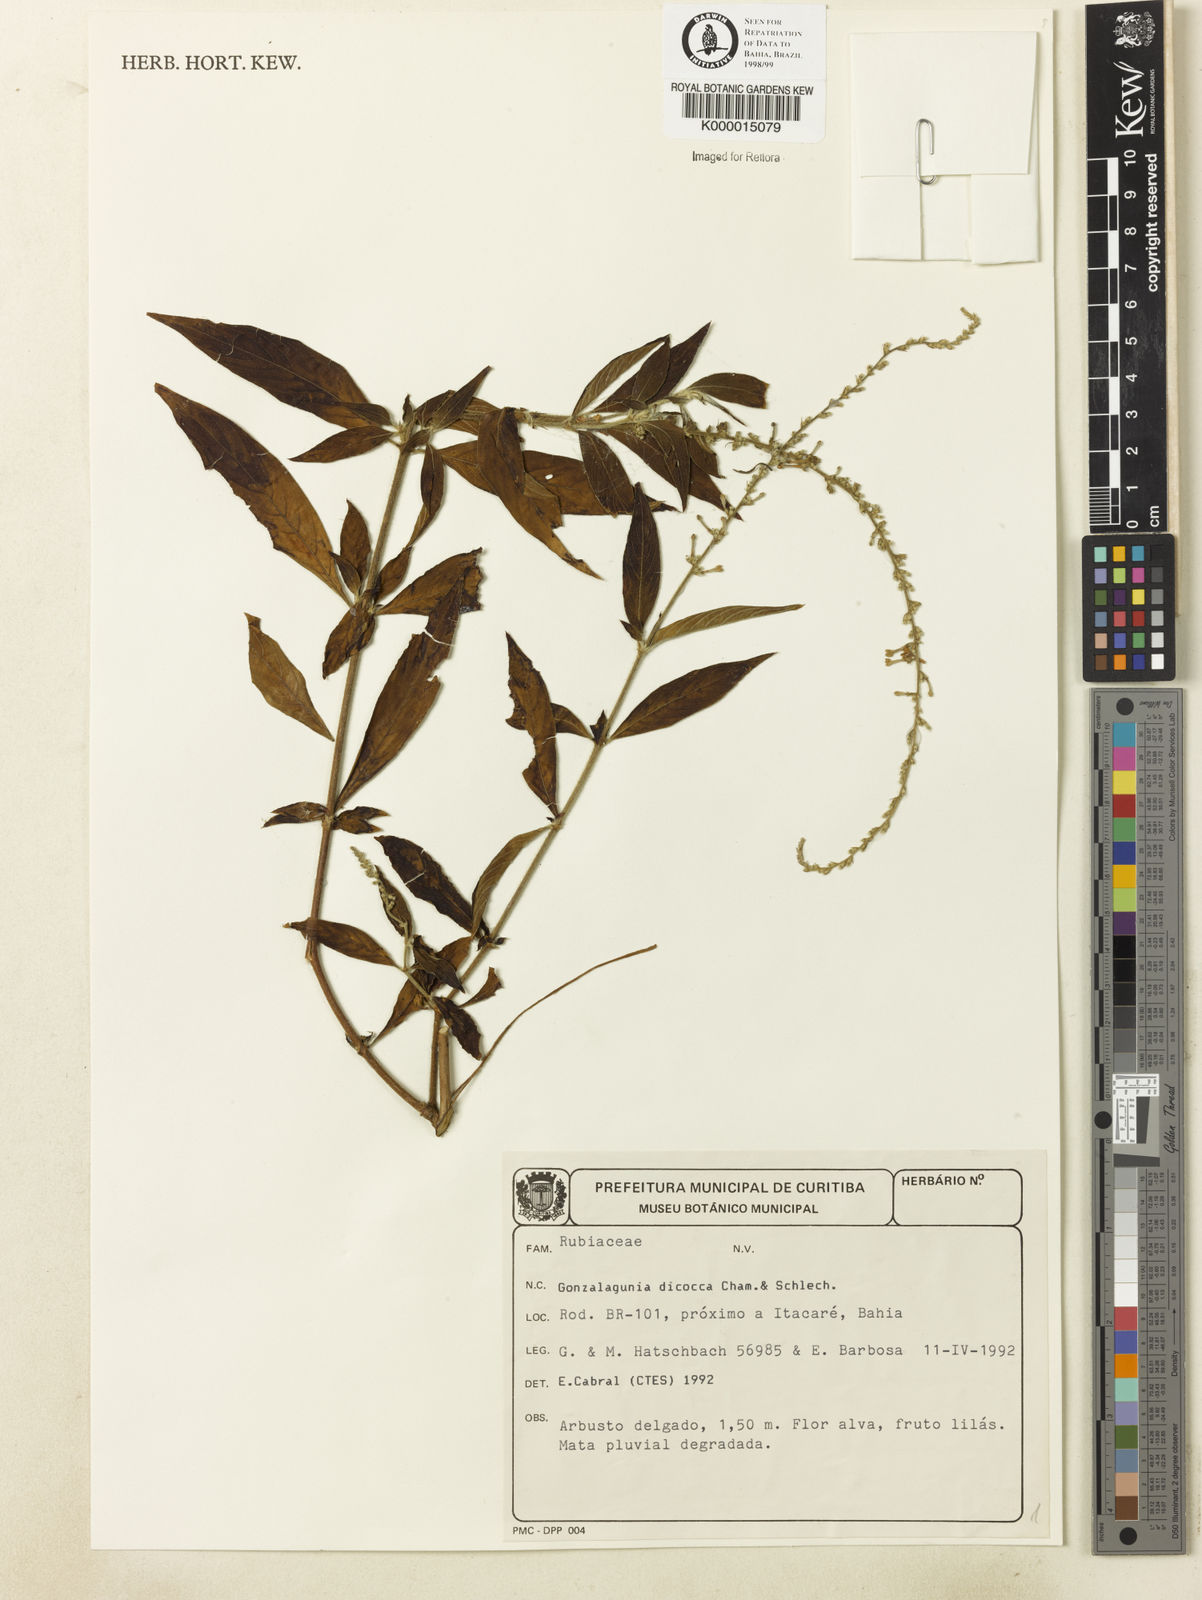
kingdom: Plantae
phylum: Tracheophyta
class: Magnoliopsida
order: Gentianales
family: Rubiaceae
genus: Gonzalagunia
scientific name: Gonzalagunia dicocca
